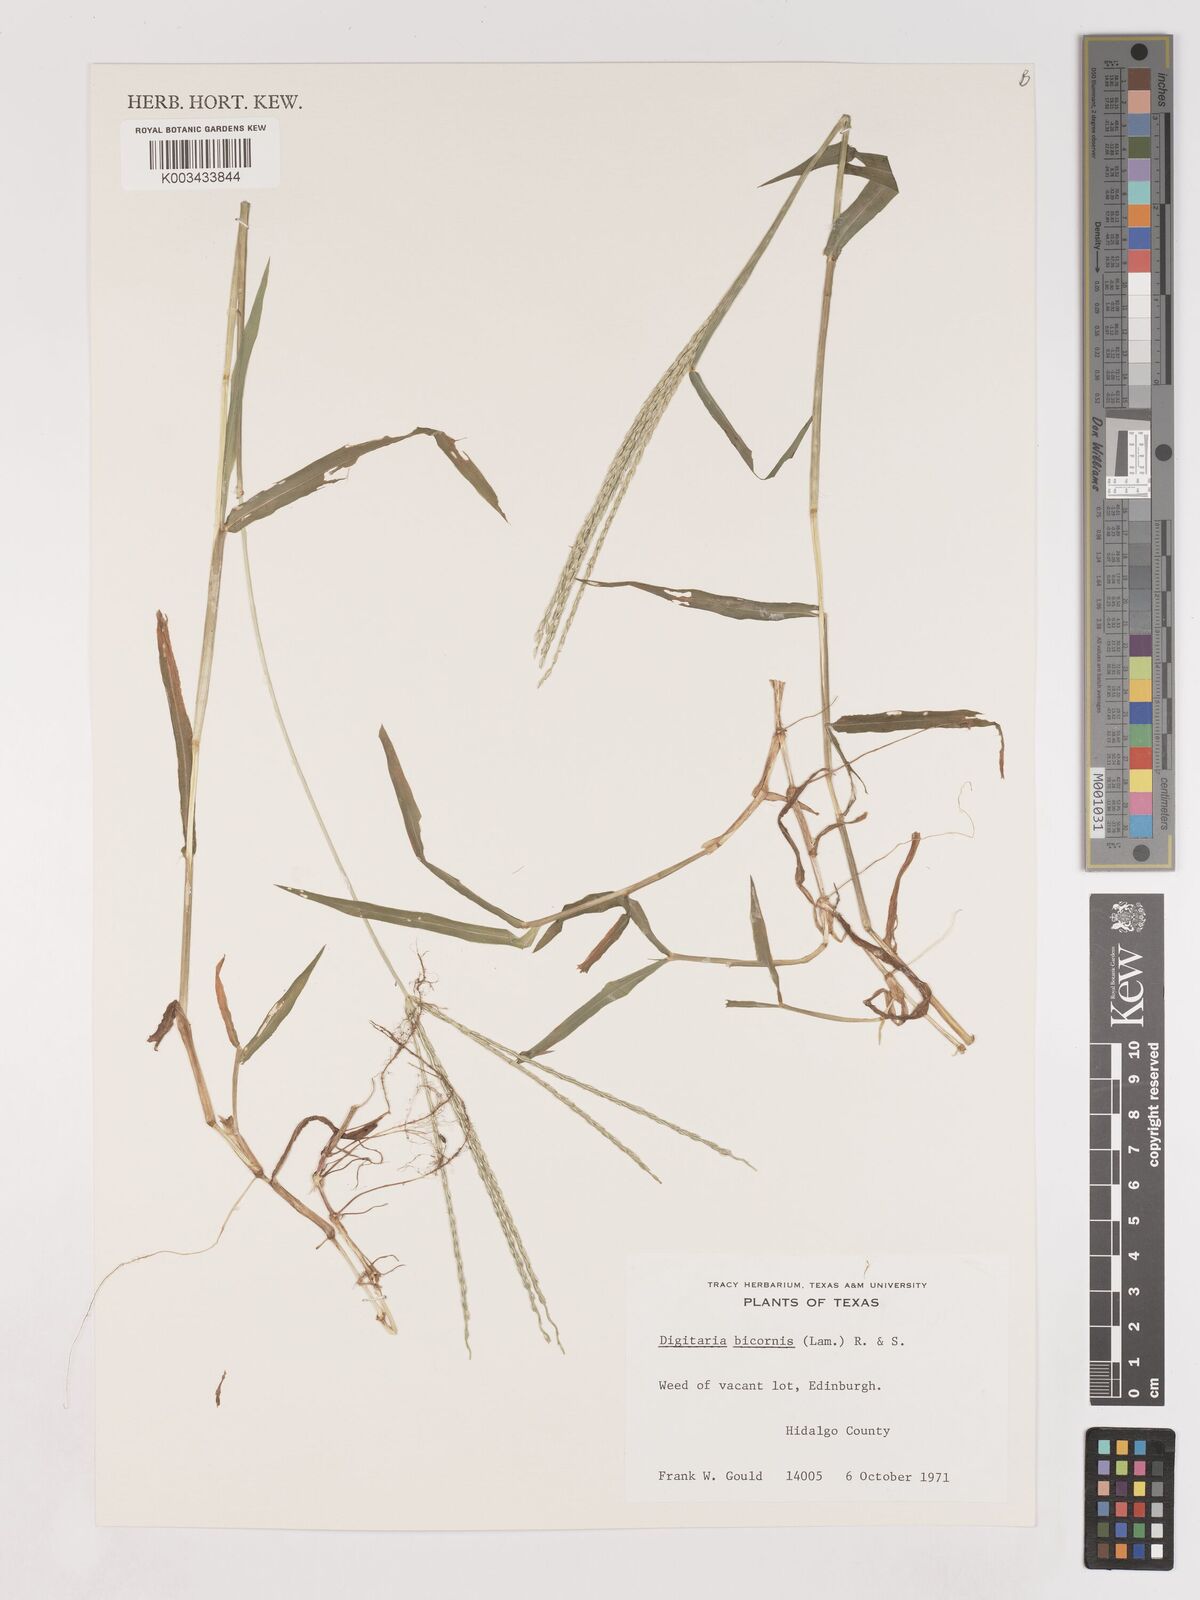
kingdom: Plantae
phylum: Tracheophyta
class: Liliopsida
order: Poales
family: Poaceae
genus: Digitaria
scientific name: Digitaria ciliaris
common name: Tropical finger-grass
